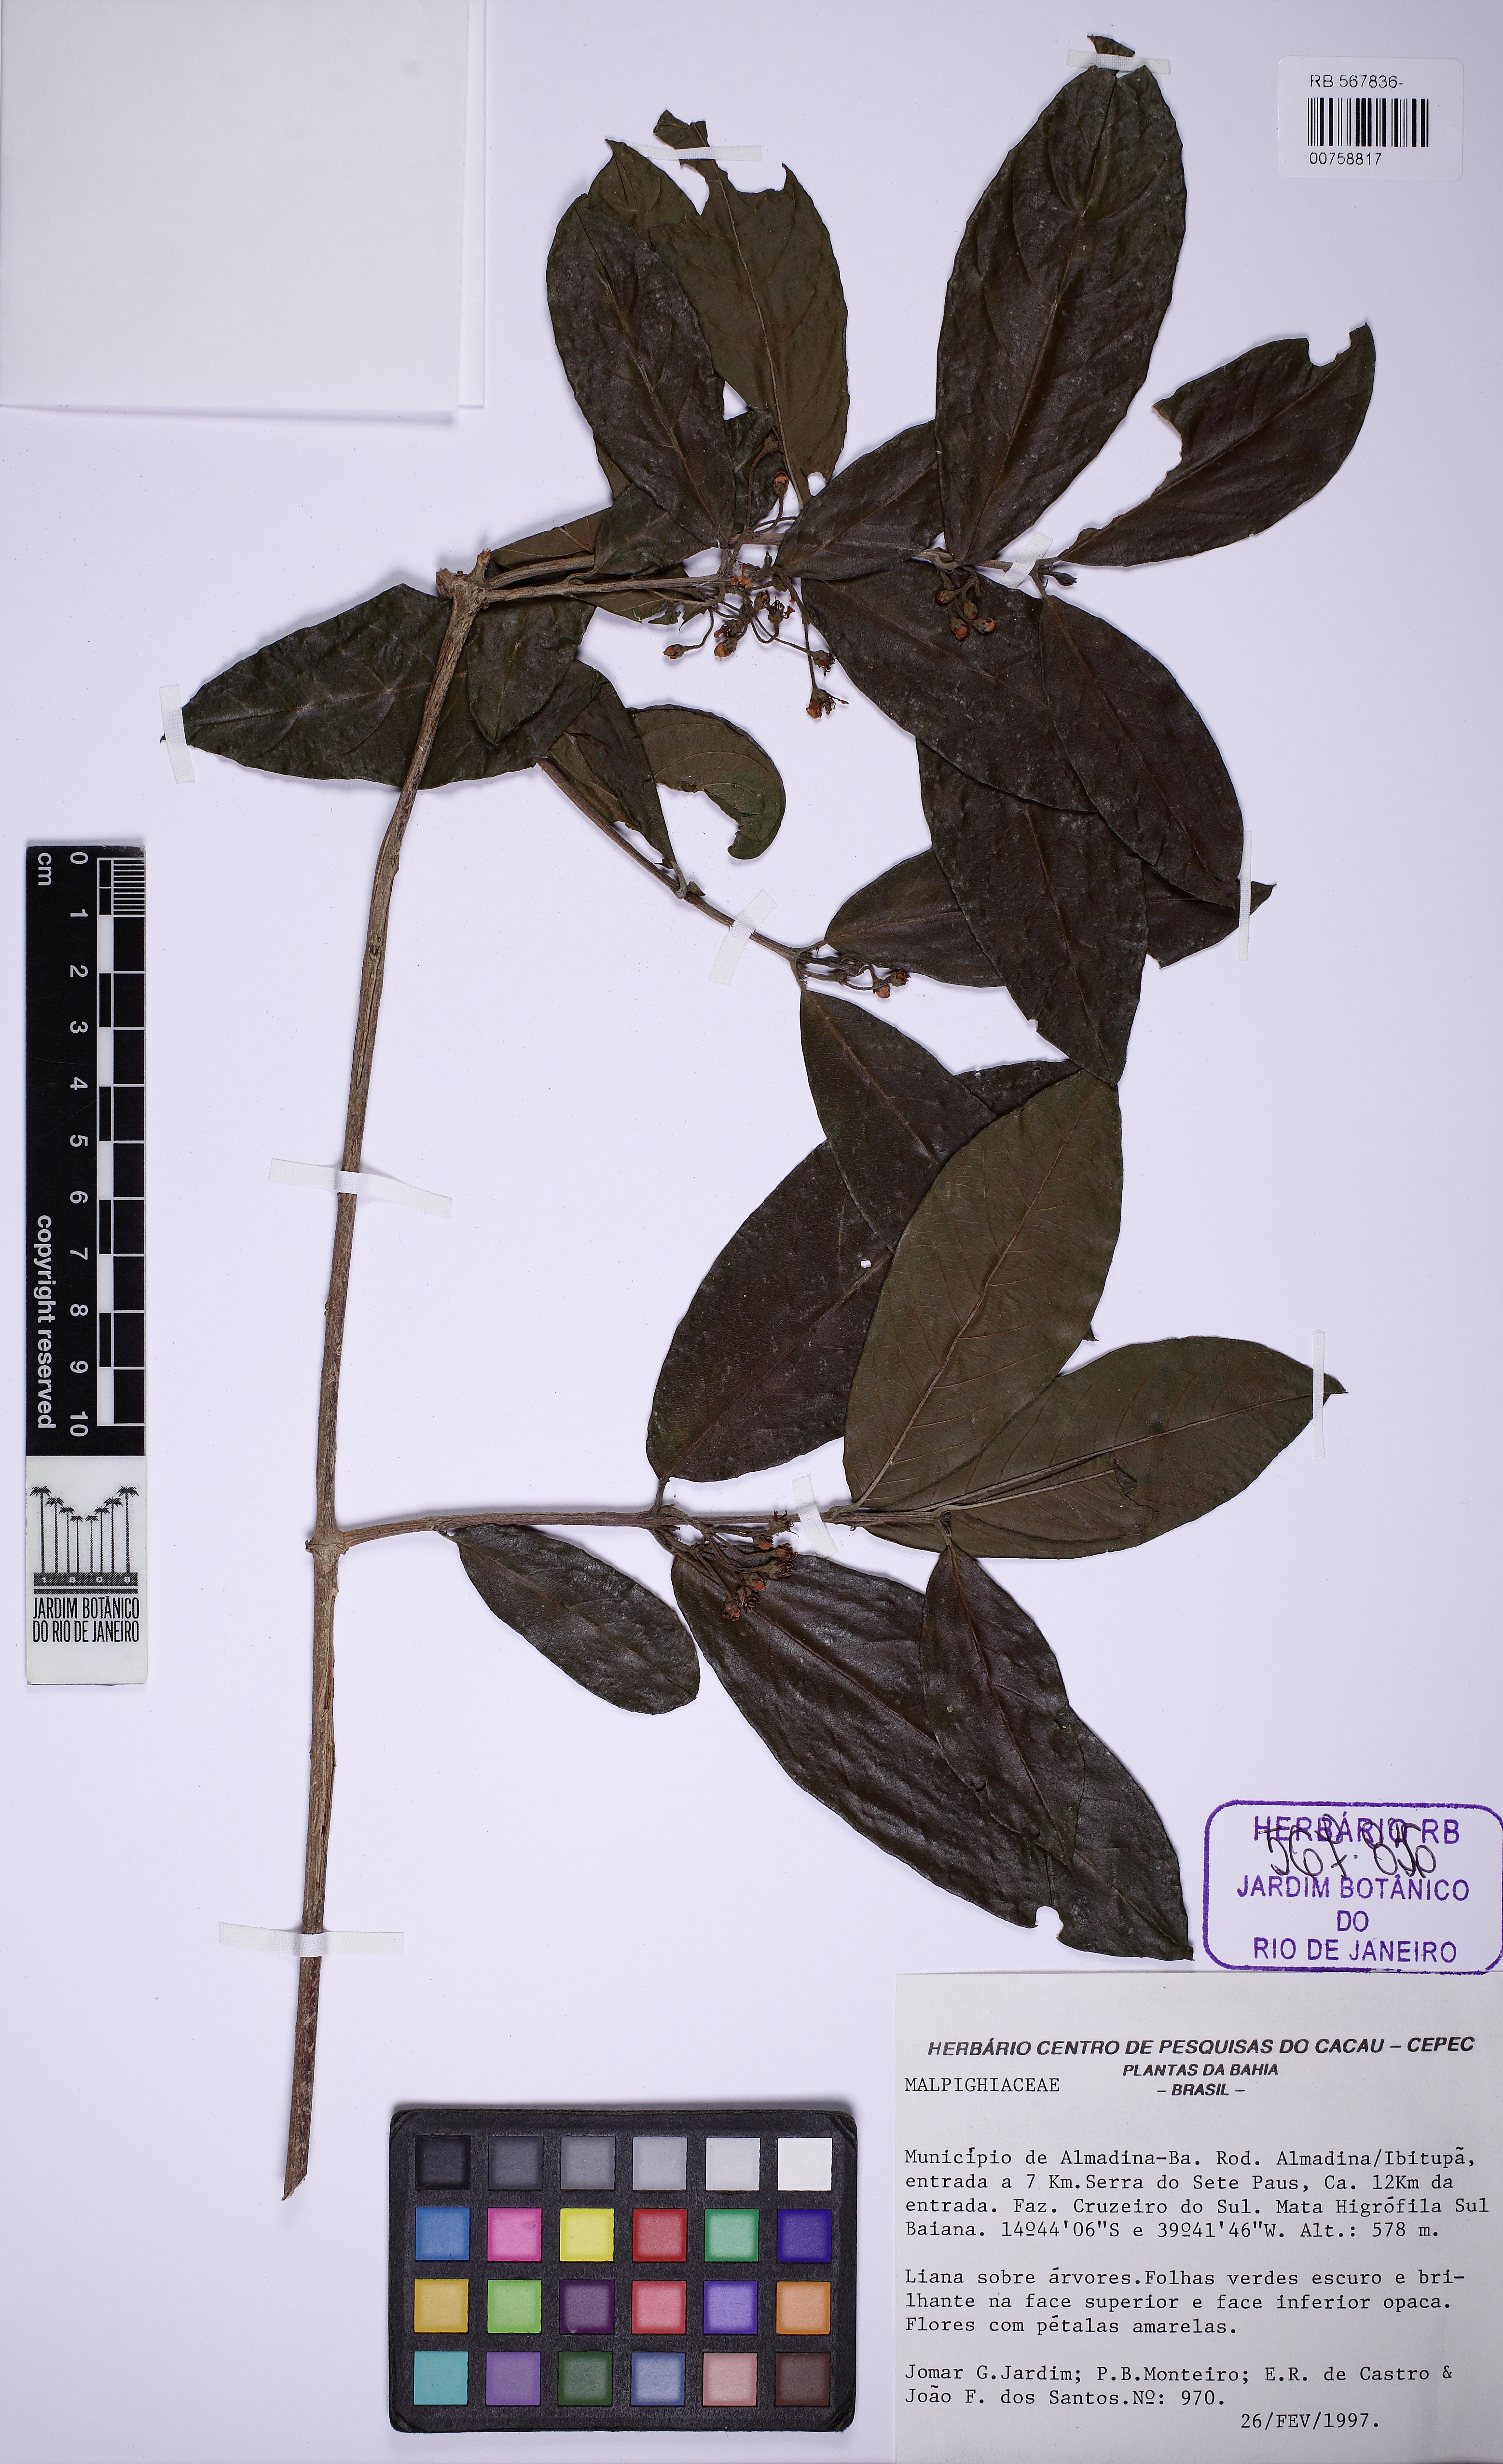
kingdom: Plantae
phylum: Tracheophyta
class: Magnoliopsida
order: Malpighiales
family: Malpighiaceae
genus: Hiraea
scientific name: Hiraea
